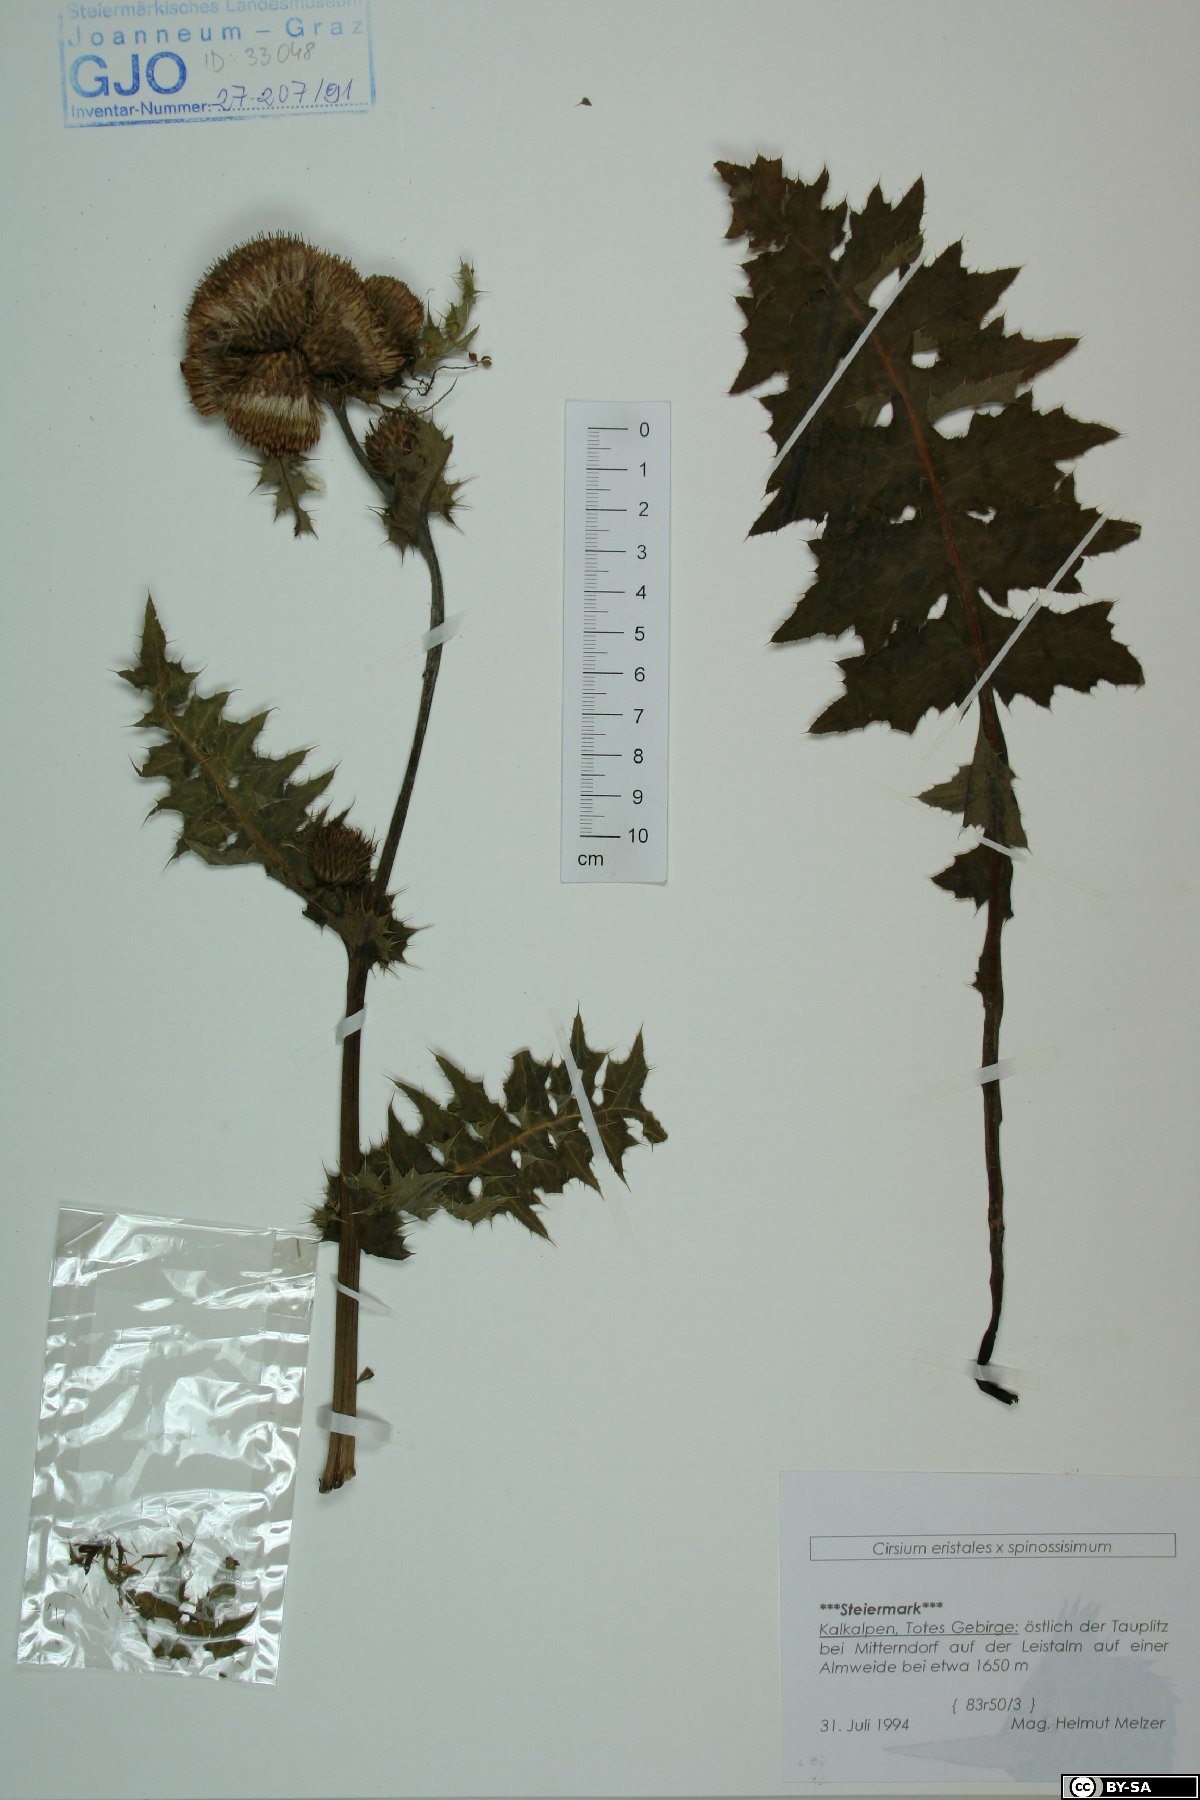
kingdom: Plantae
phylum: Tracheophyta
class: Magnoliopsida
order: Asterales
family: Asteraceae
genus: Cirsium
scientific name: Cirsium erisithales
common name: Yellow thistle
